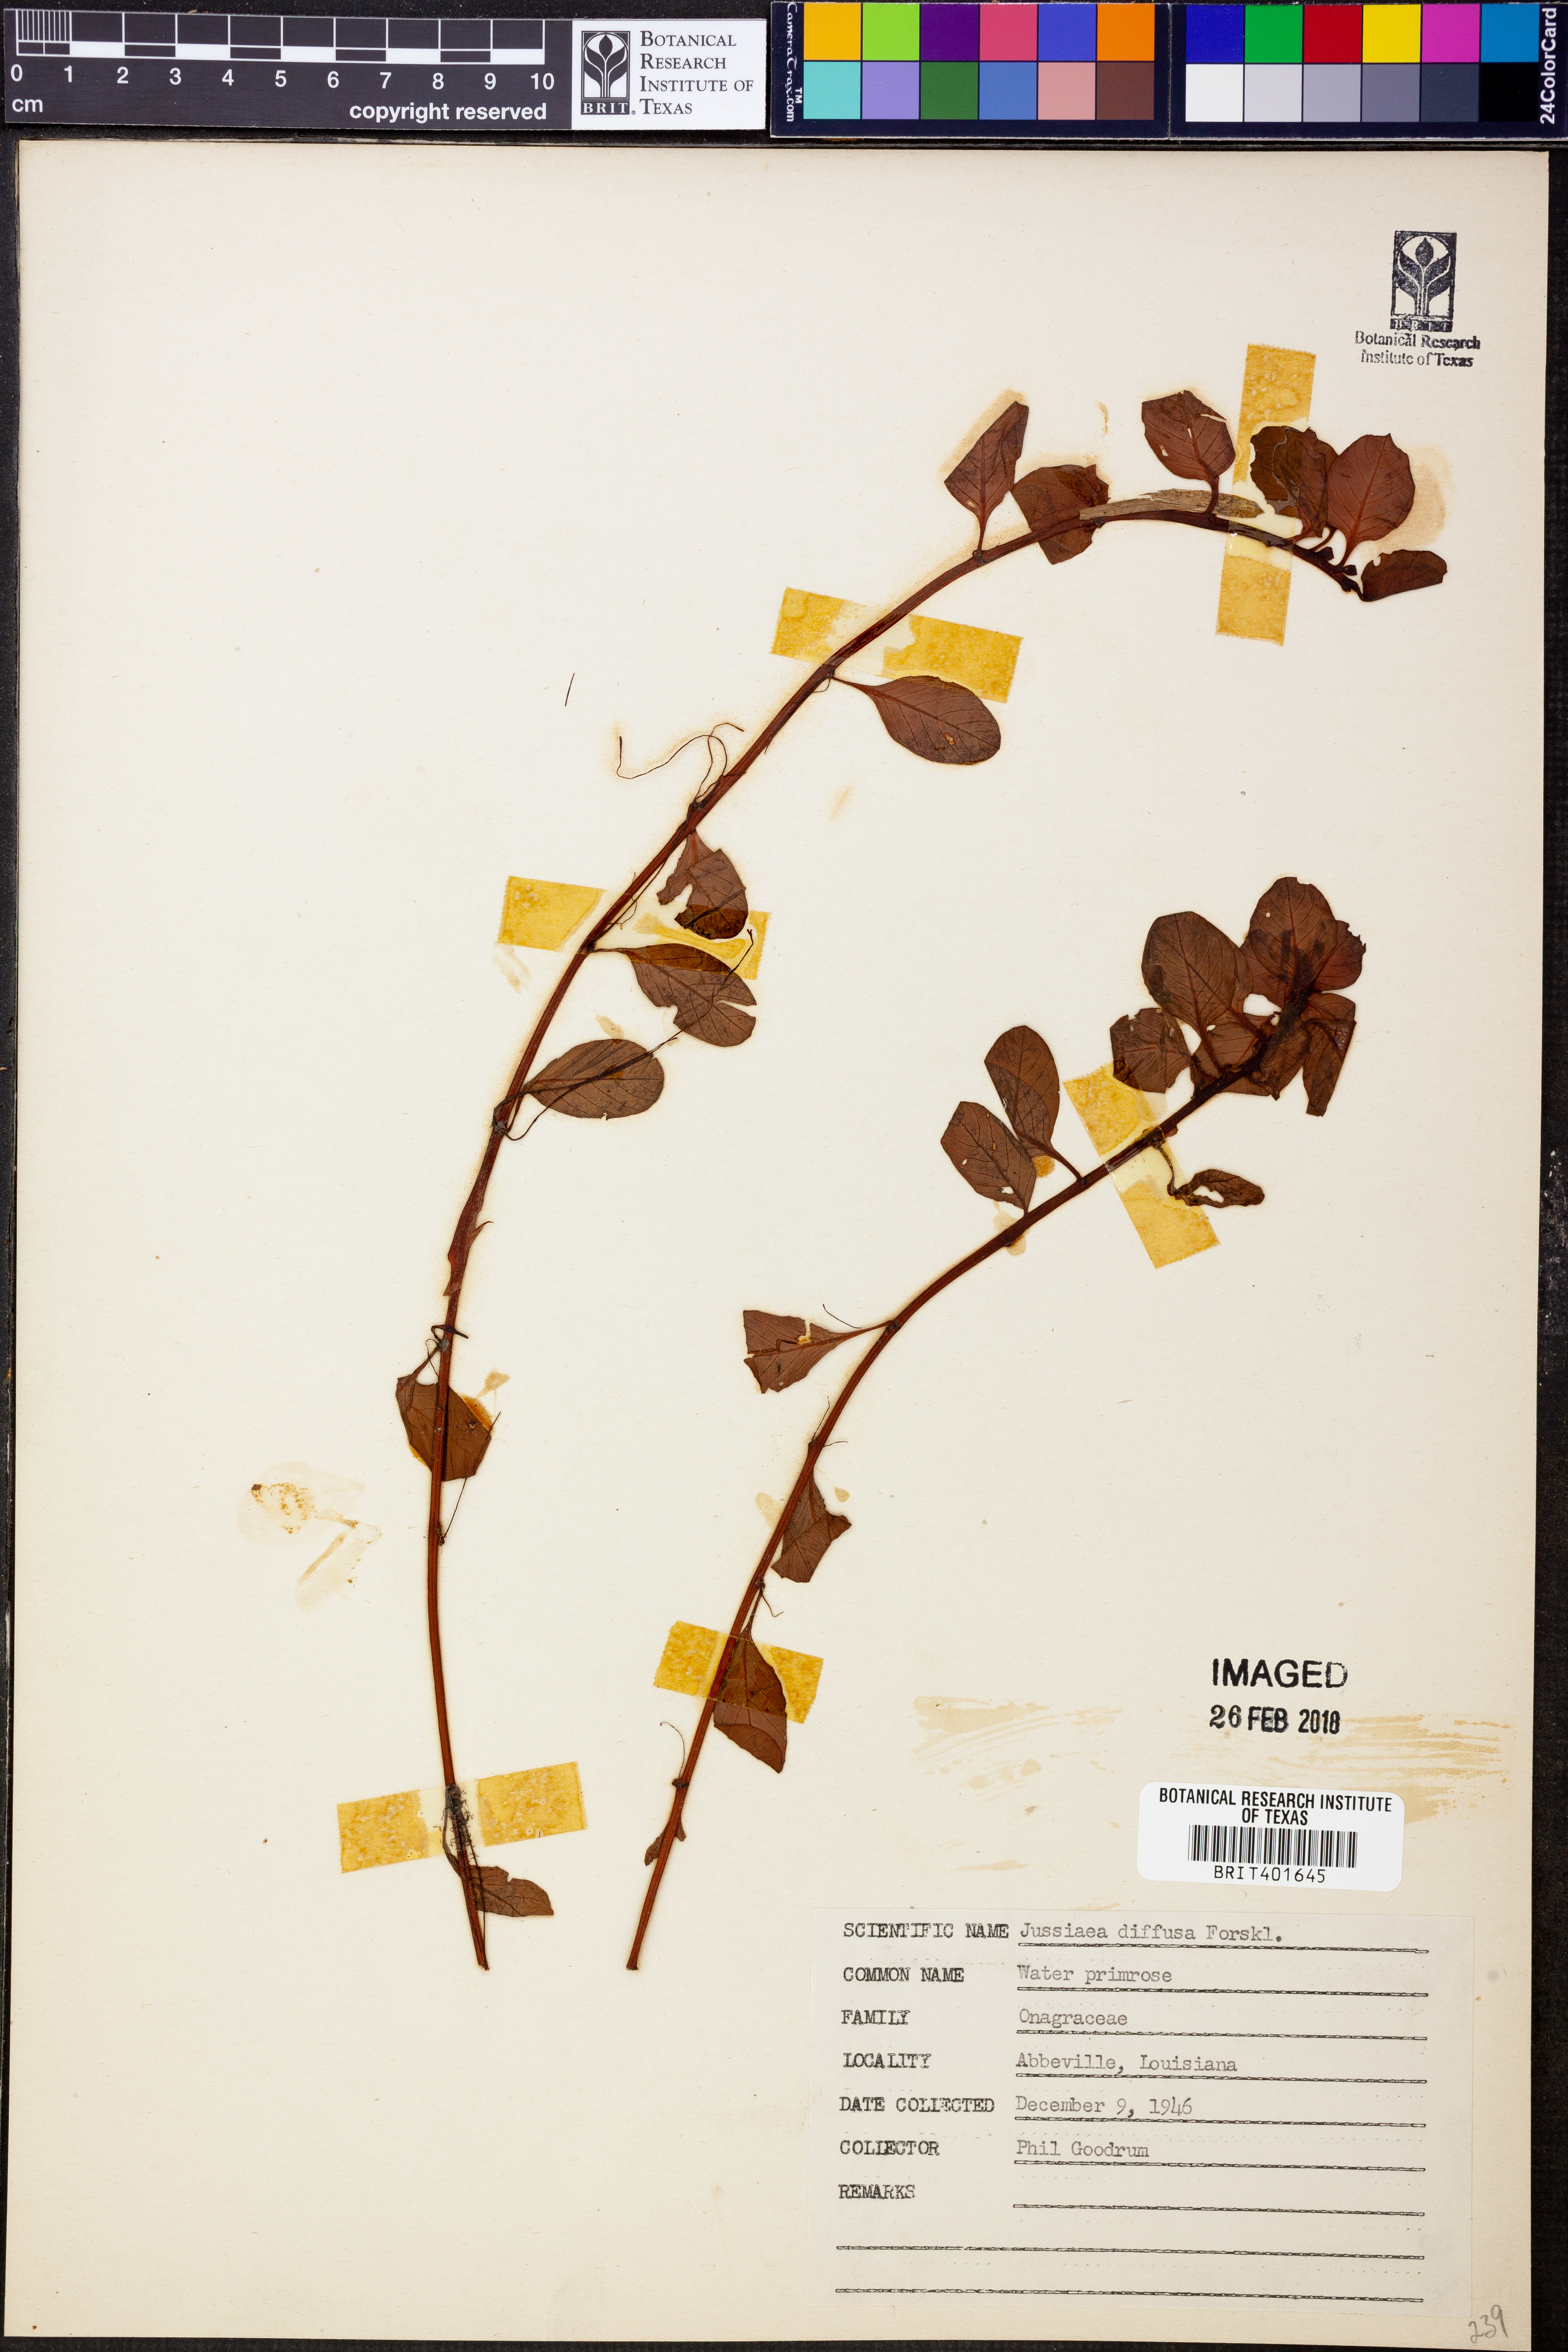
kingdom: Plantae
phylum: Tracheophyta
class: Magnoliopsida
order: Myrtales
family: Onagraceae
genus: Ludwigia
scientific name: Ludwigia adscendens
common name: Creeping water primrose
